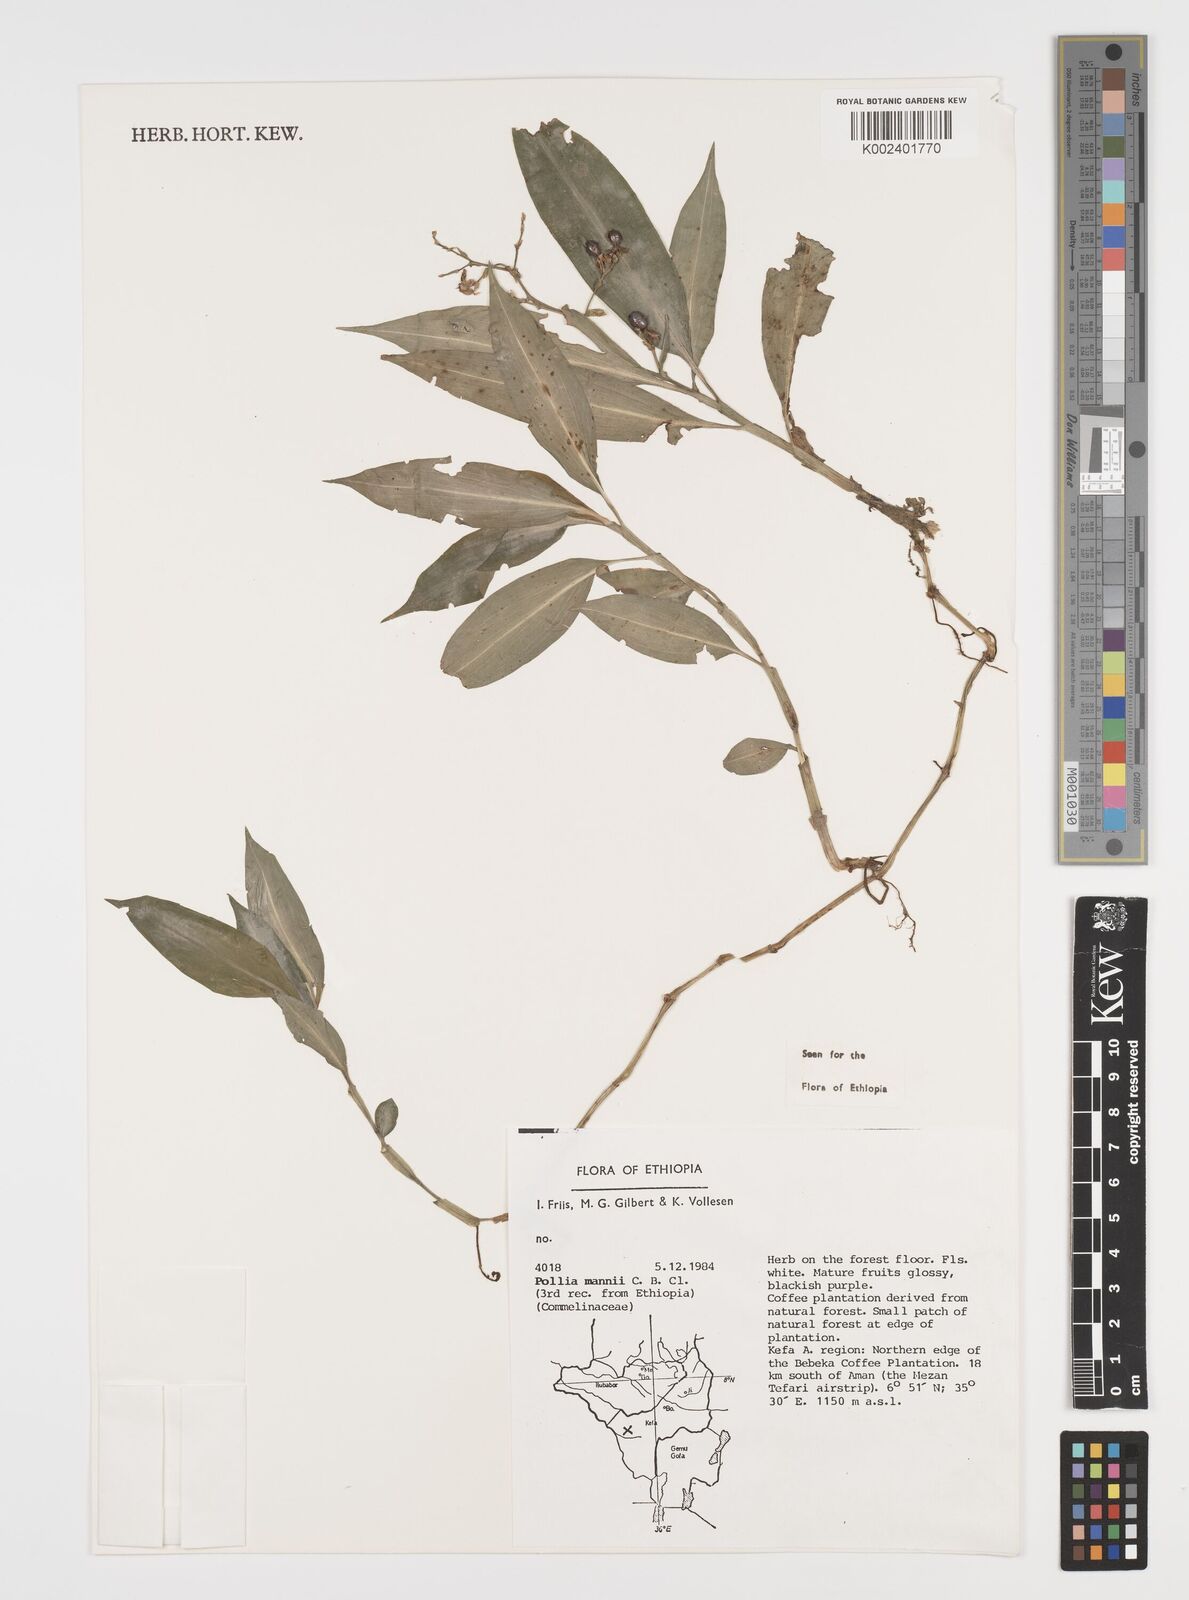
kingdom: Plantae
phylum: Tracheophyta
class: Liliopsida
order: Commelinales
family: Commelinaceae
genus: Pollia
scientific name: Pollia mannii
